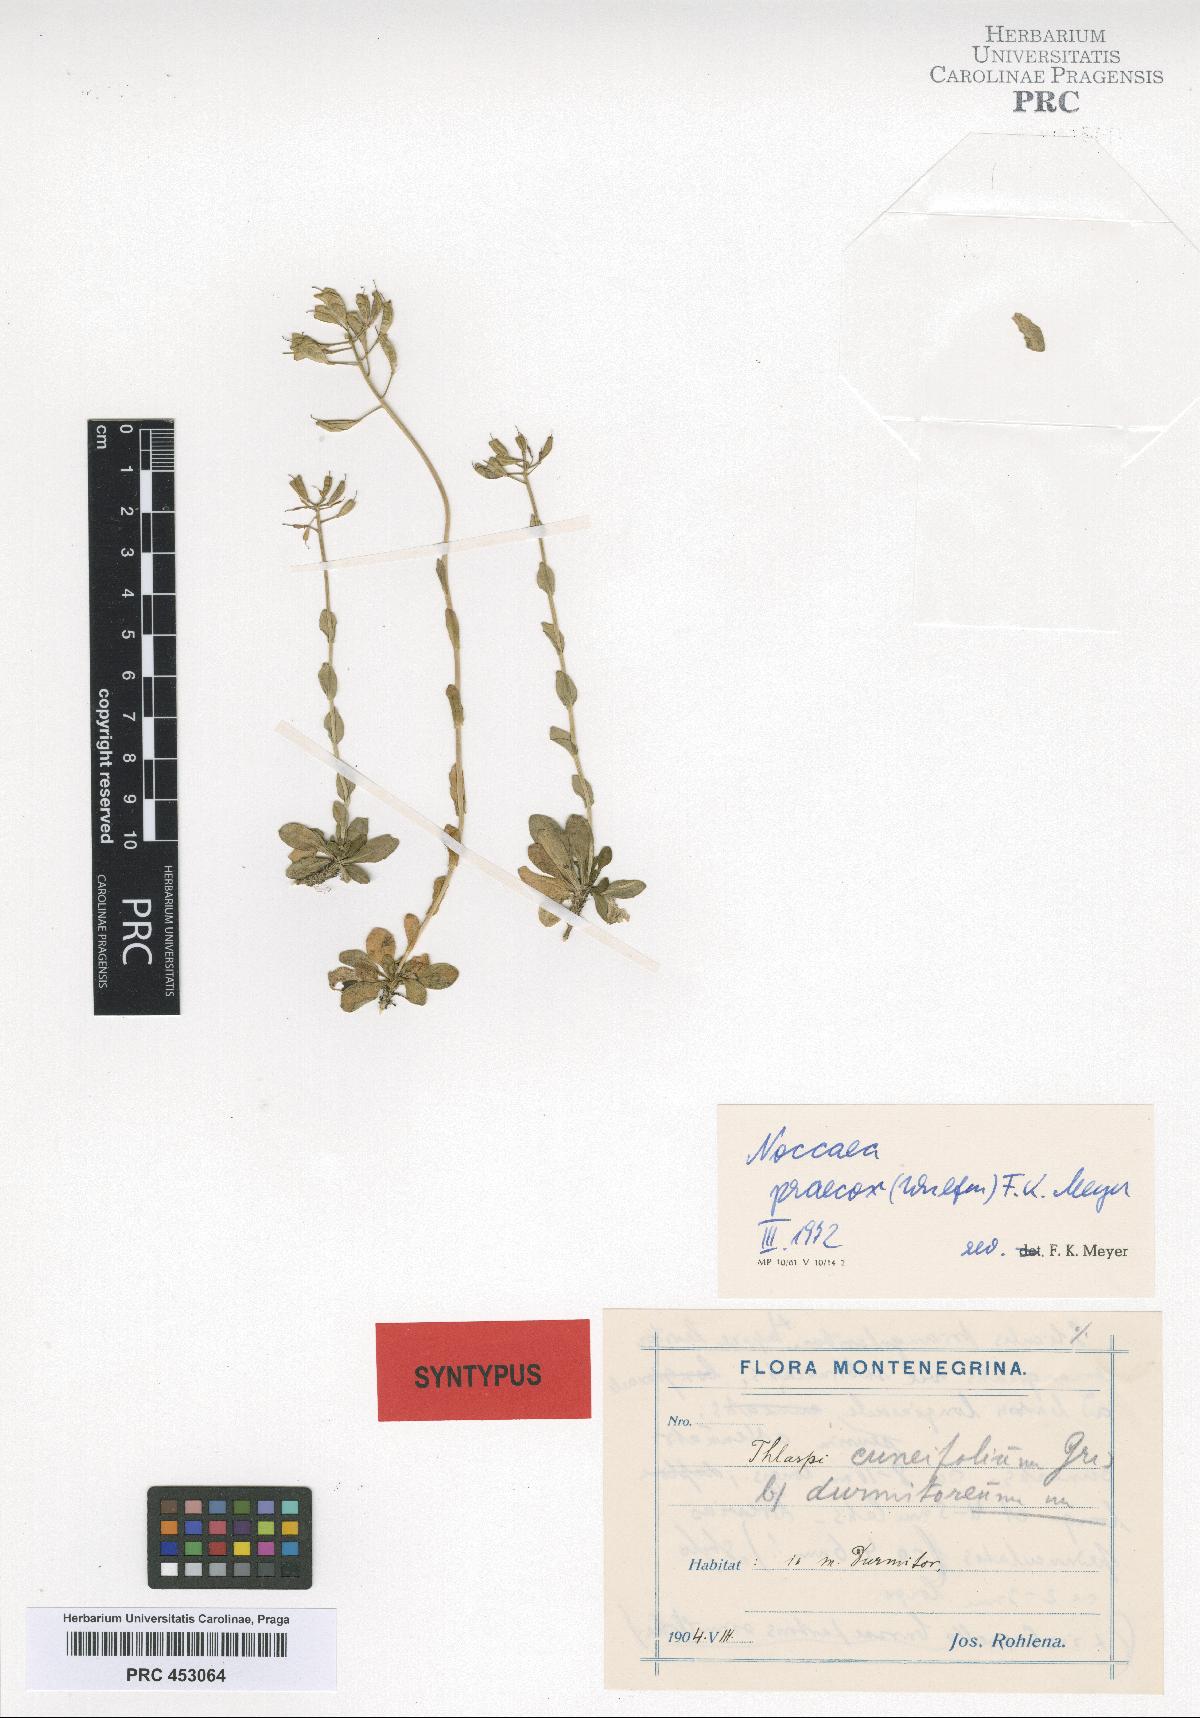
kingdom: Plantae
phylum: Tracheophyta
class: Magnoliopsida
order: Brassicales
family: Brassicaceae
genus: Noccaea
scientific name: Noccaea praecox
